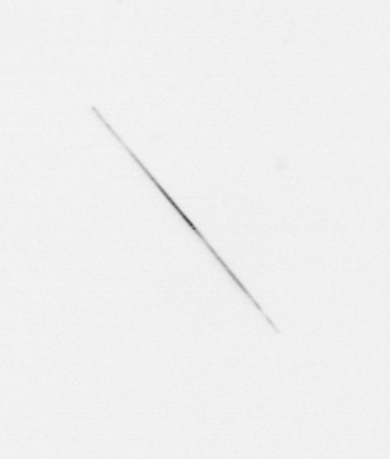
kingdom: Chromista
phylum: Ochrophyta
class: Bacillariophyceae
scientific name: Bacillariophyceae
